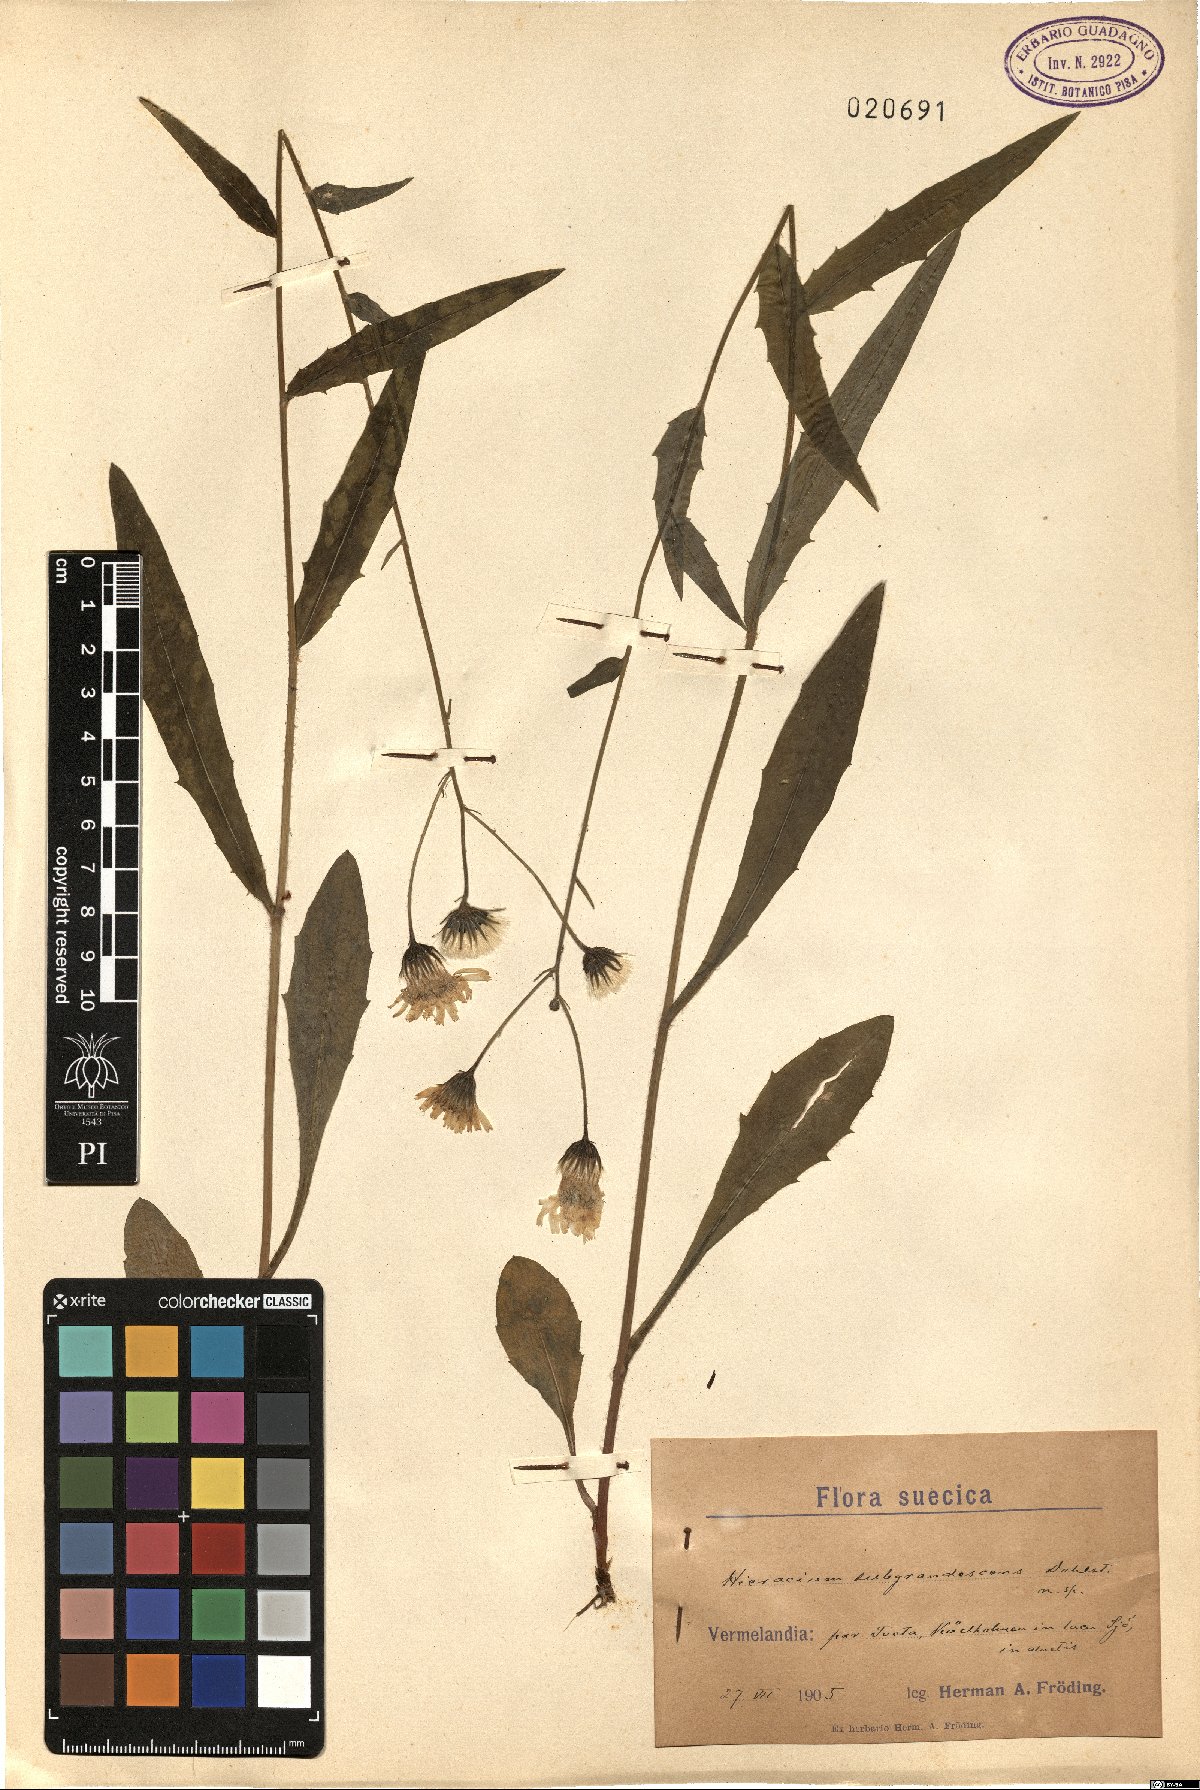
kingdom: Plantae
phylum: Tracheophyta
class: Magnoliopsida
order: Asterales
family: Asteraceae
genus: Hieracium
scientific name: Hieracium
